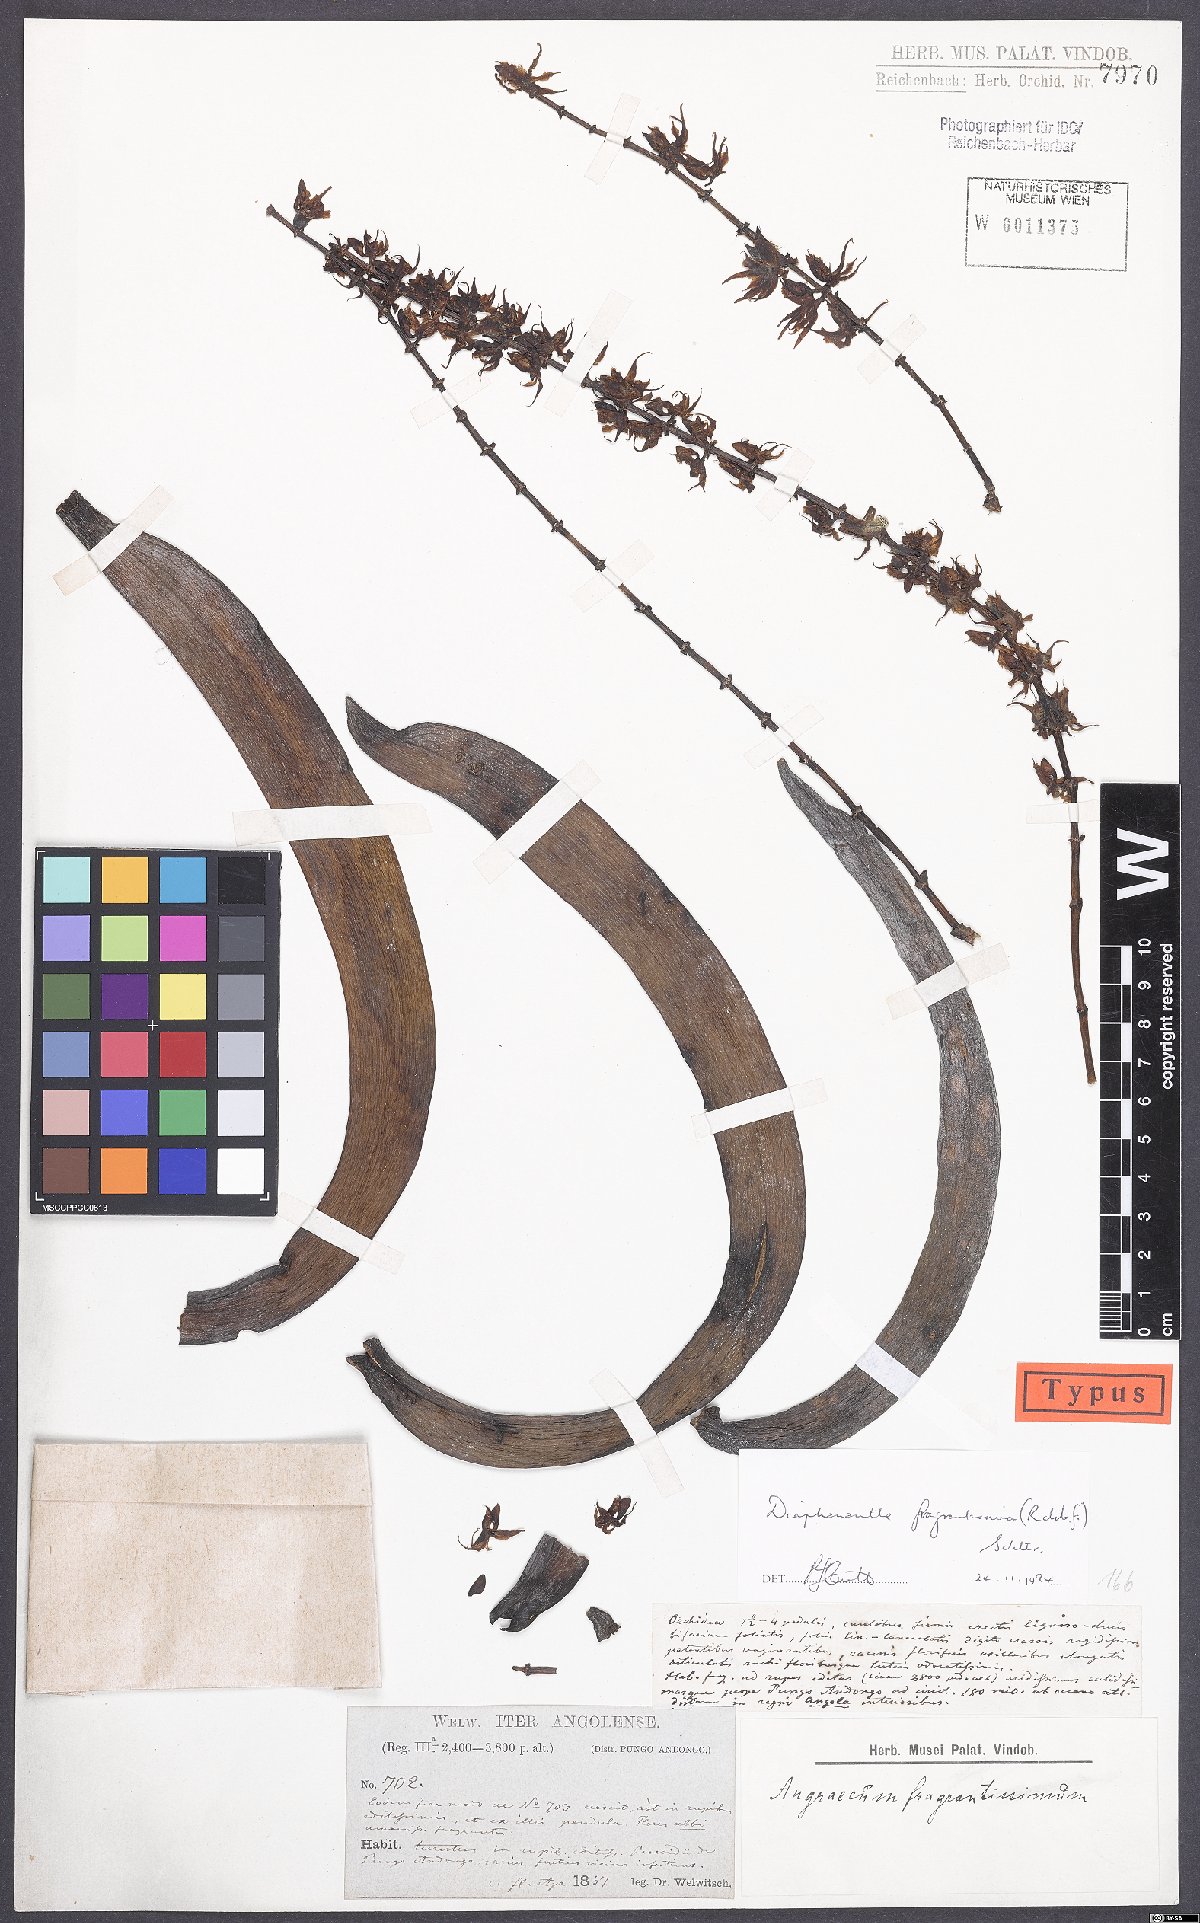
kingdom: Plantae
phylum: Tracheophyta
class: Liliopsida
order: Asparagales
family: Orchidaceae
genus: Diaphananthe
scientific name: Diaphananthe fragrantissima
